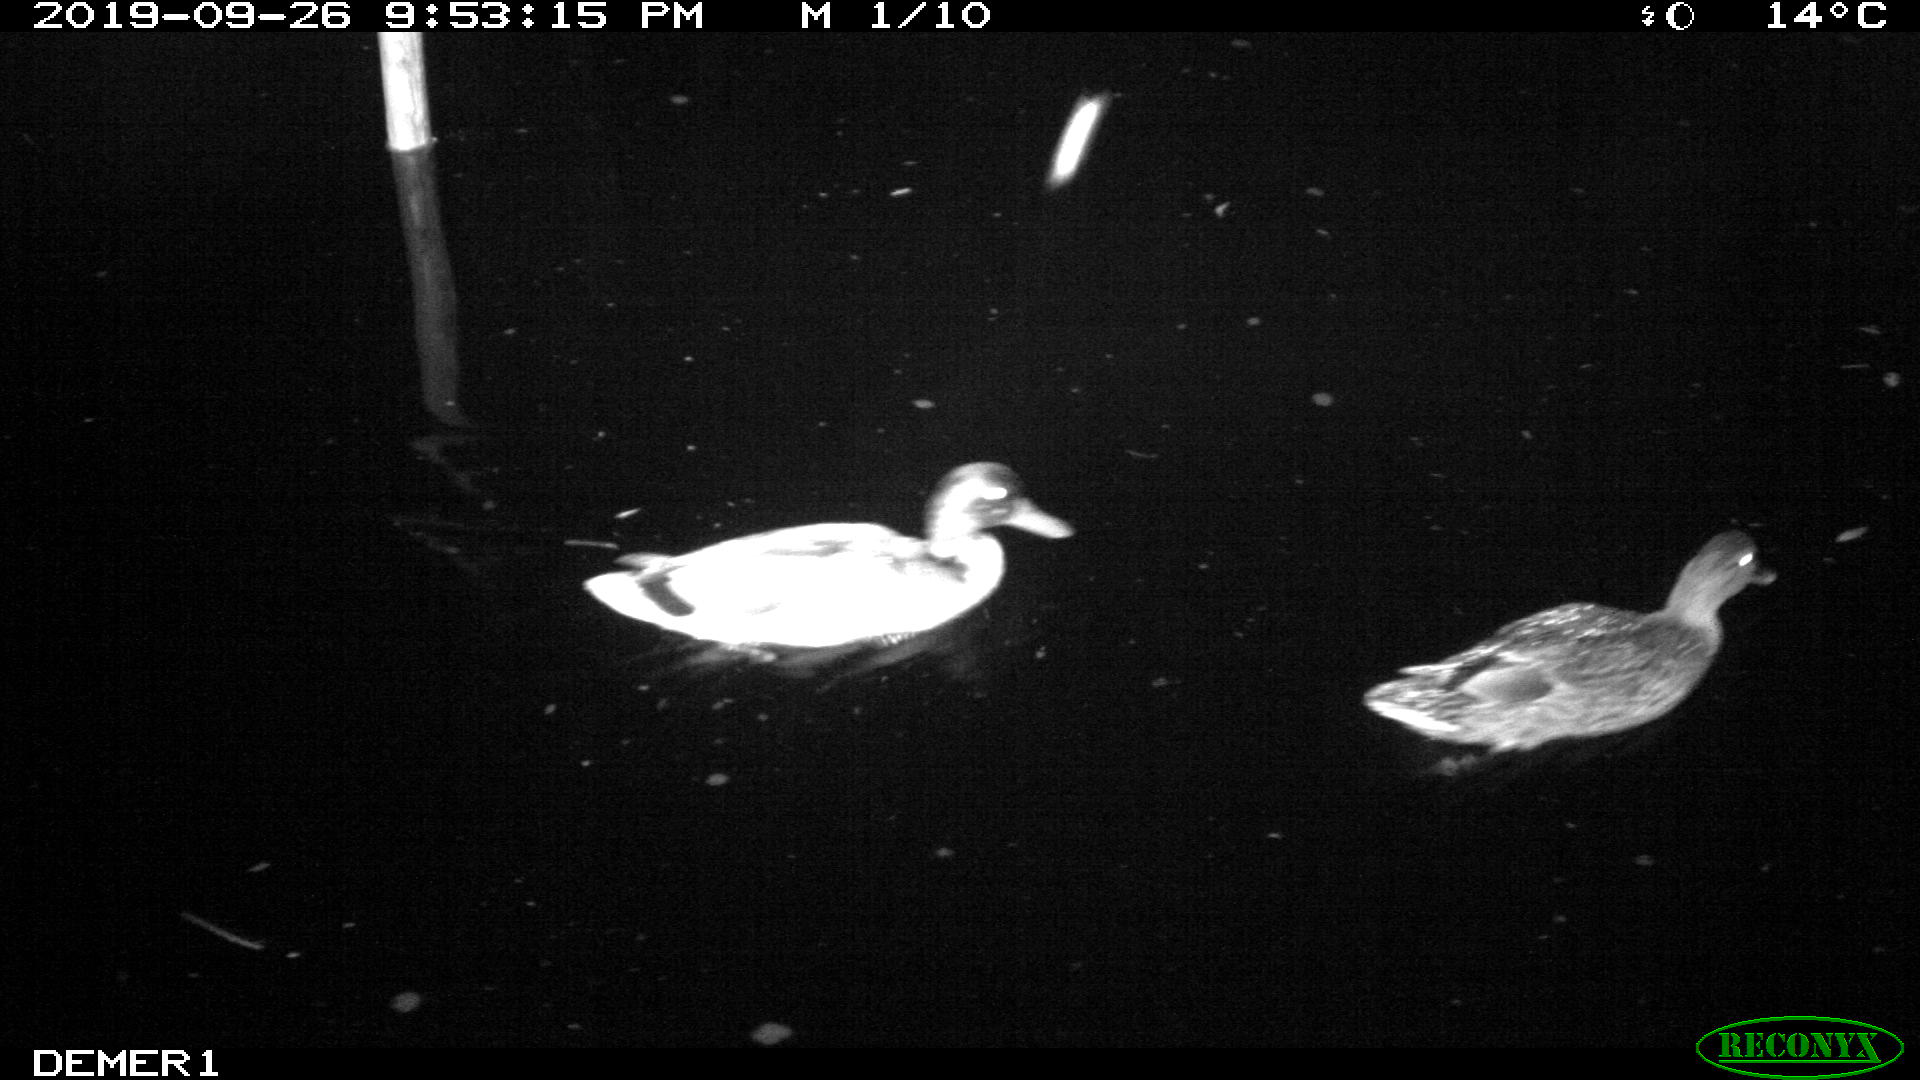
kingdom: Animalia
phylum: Chordata
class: Aves
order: Anseriformes
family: Anatidae
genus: Anas
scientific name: Anas platyrhynchos
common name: Mallard
